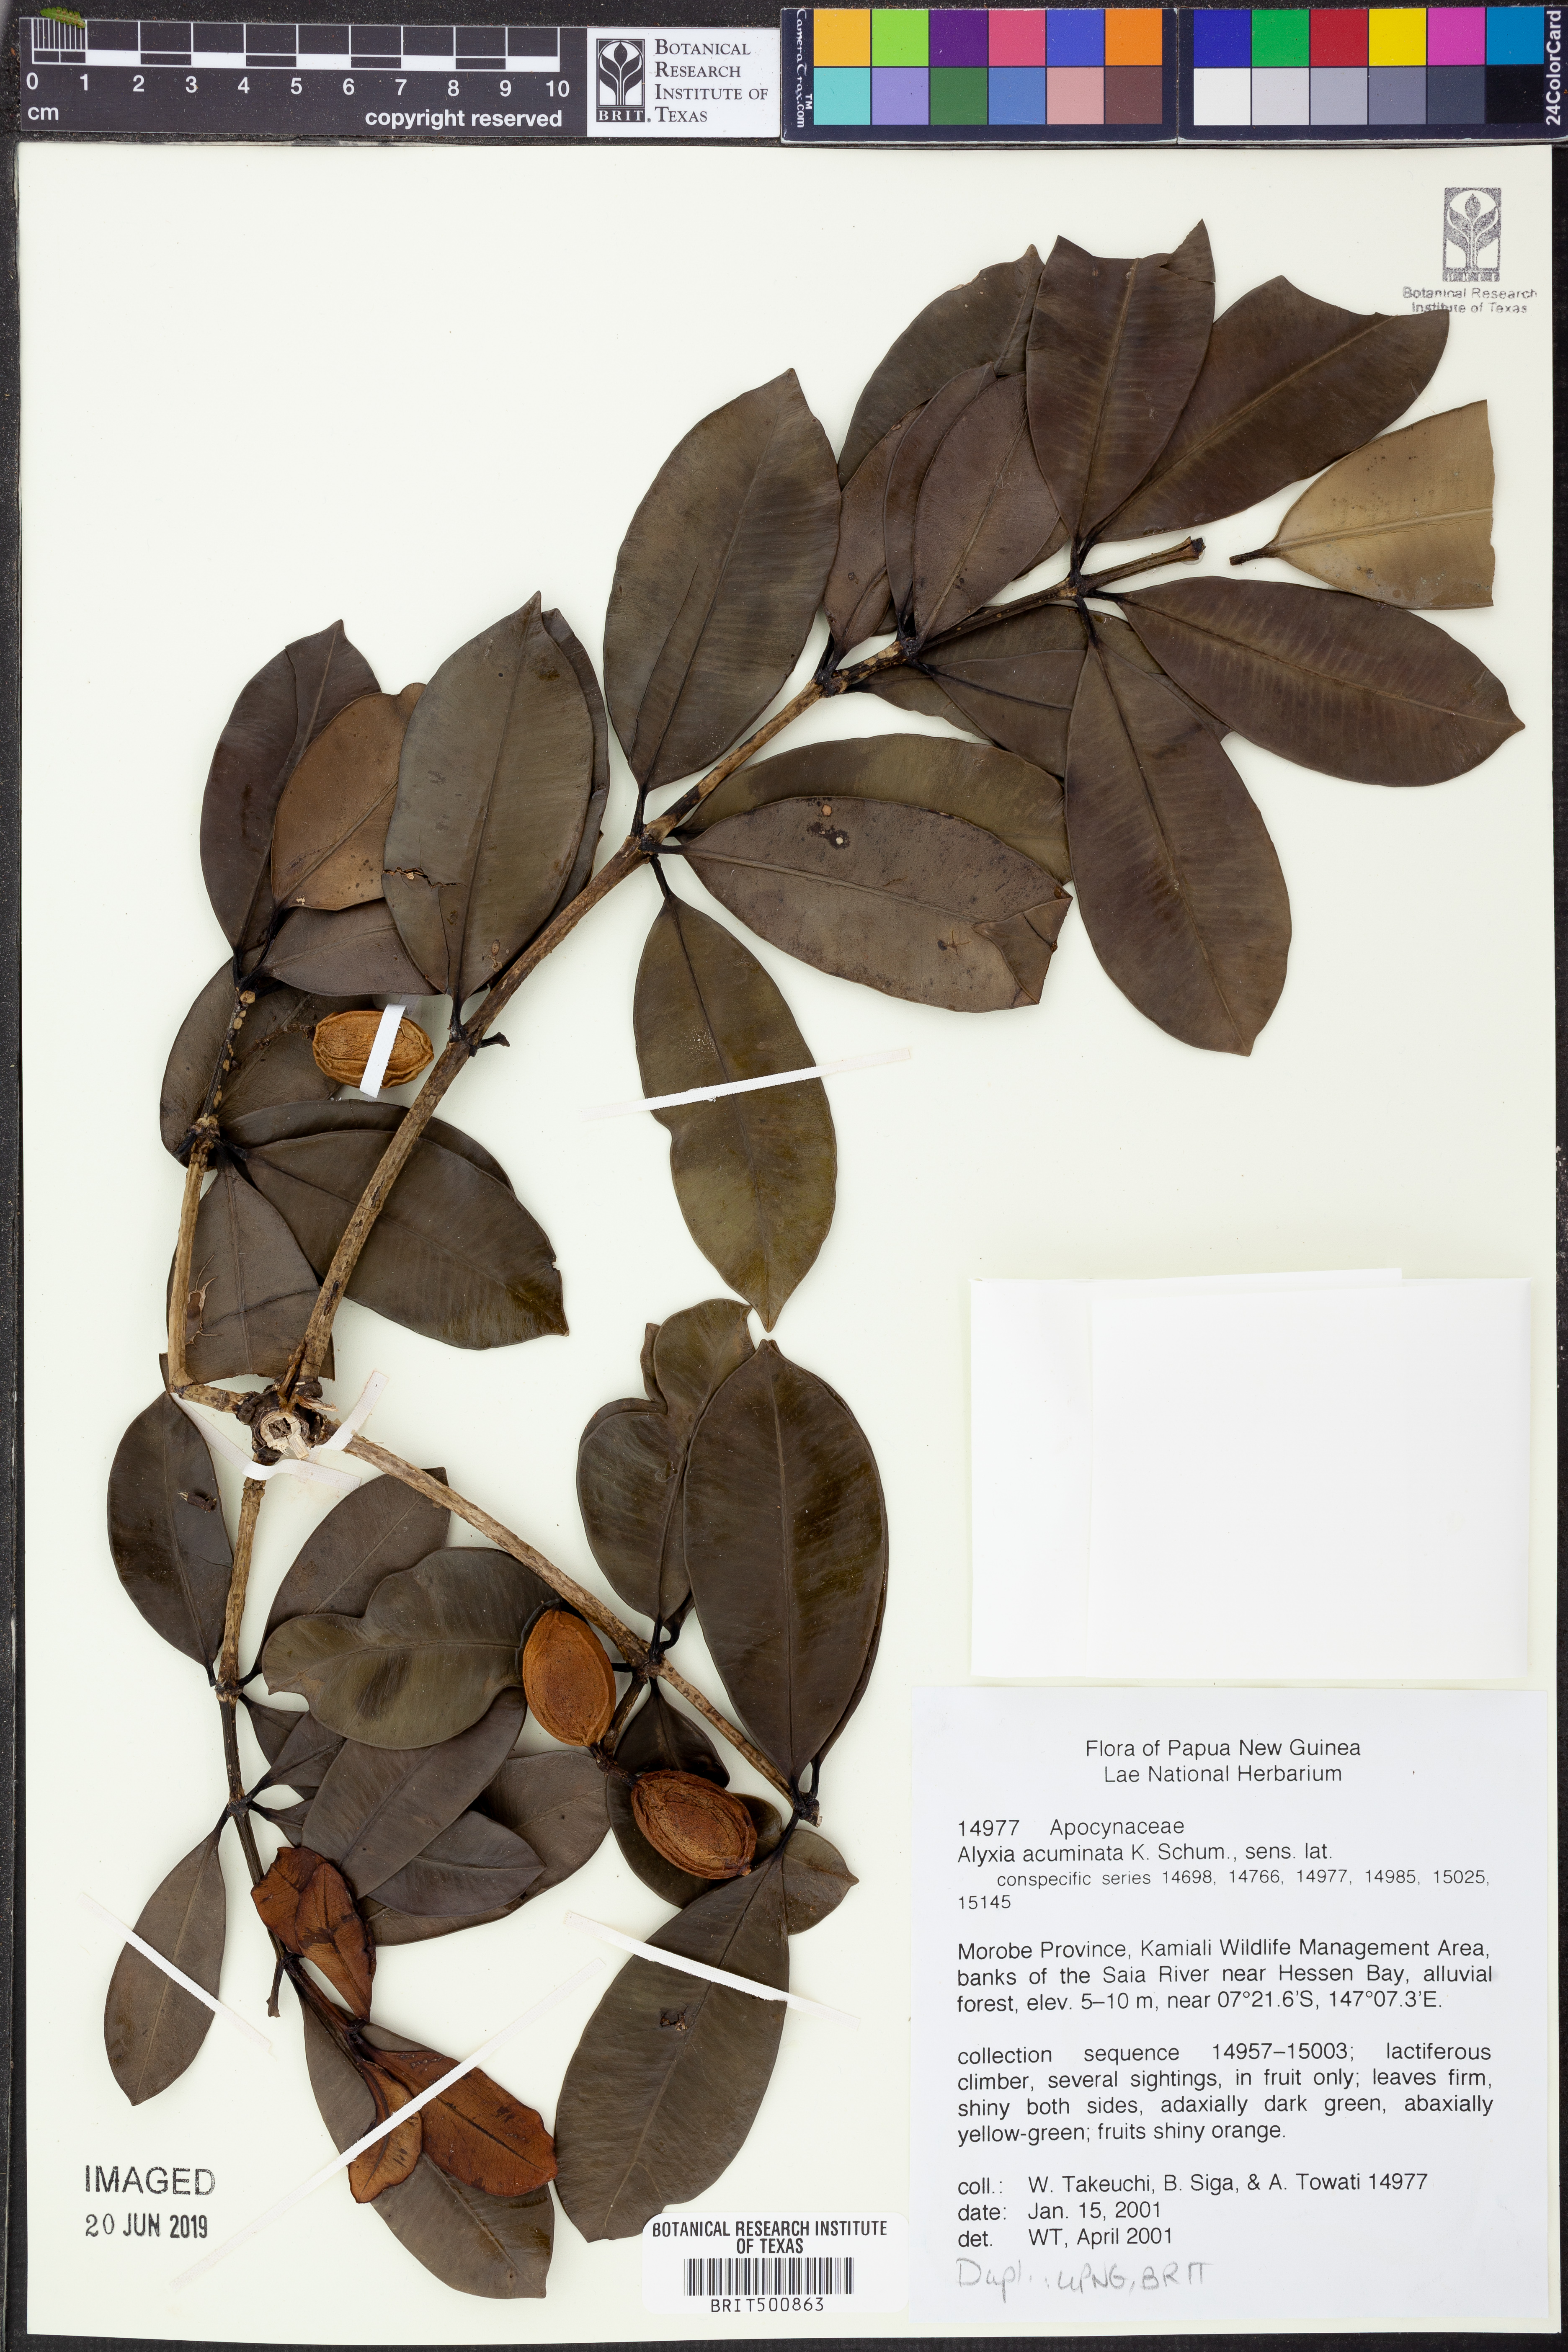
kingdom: Plantae
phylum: Tracheophyta
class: Magnoliopsida
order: Gentianales
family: Apocynaceae
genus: Alyxia
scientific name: Alyxia acuminata
